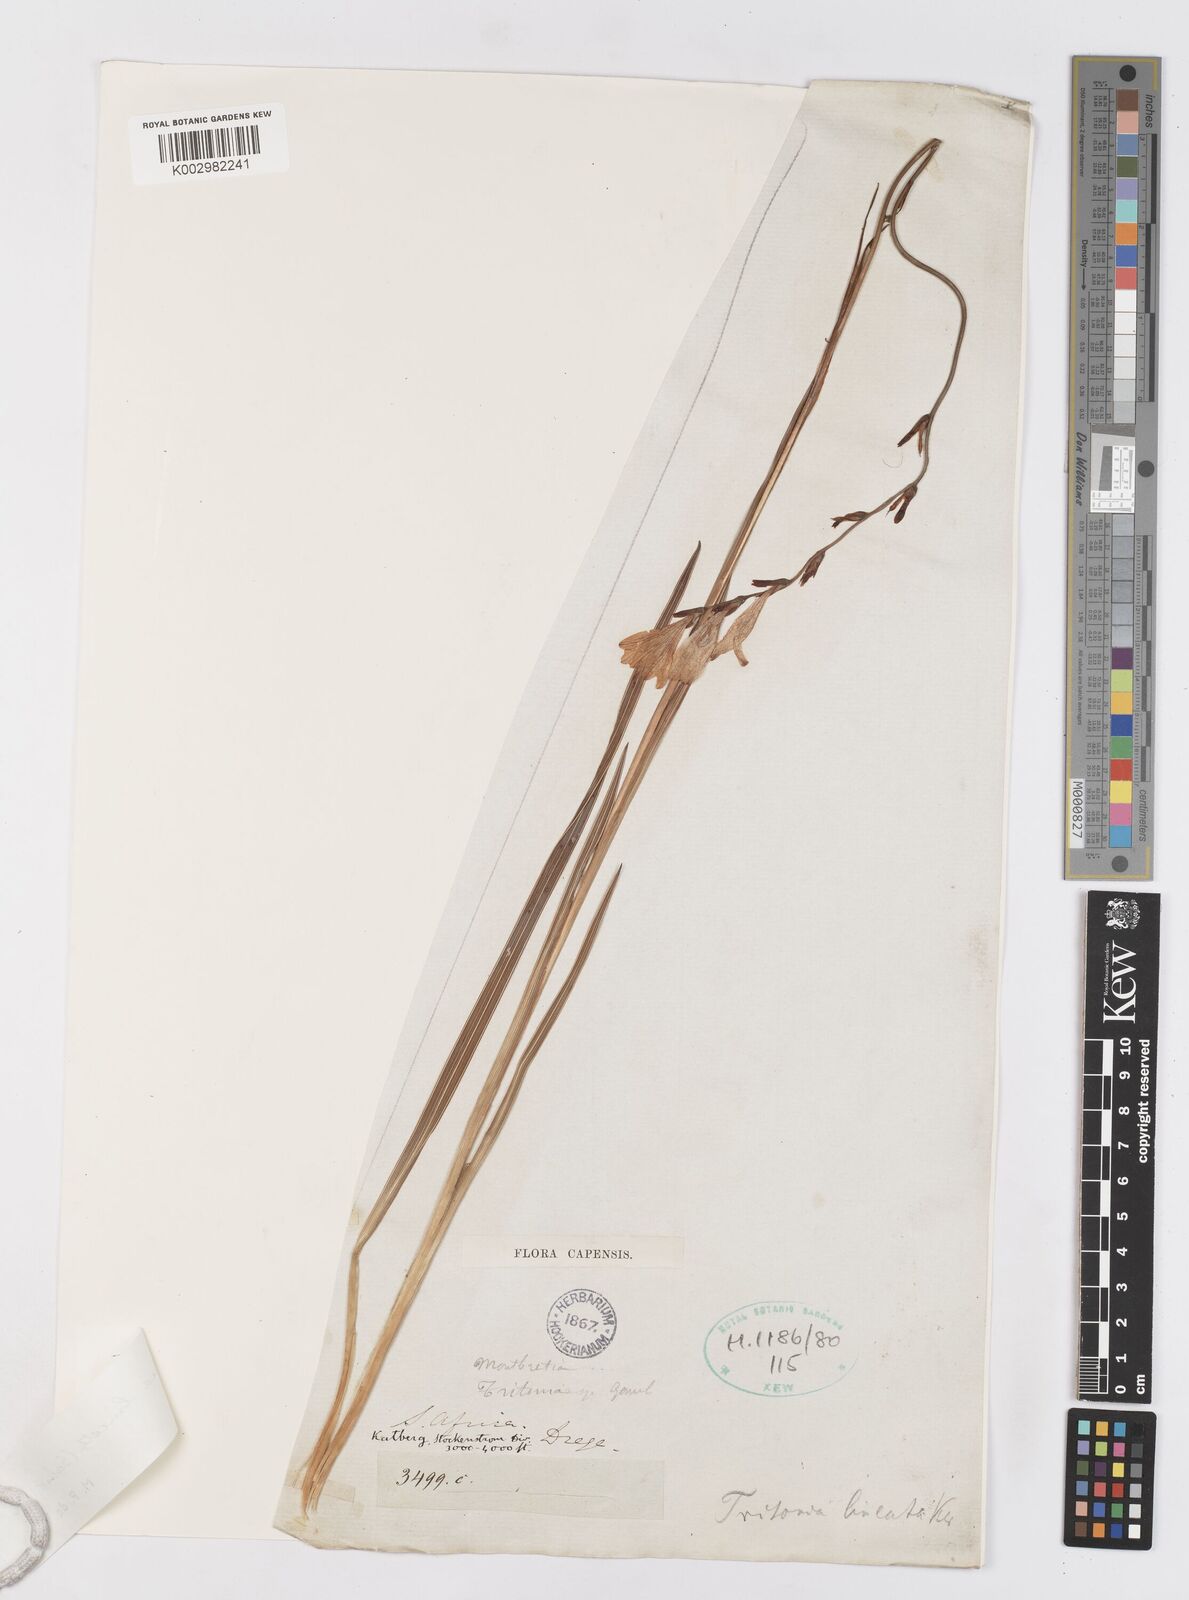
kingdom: Plantae
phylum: Tracheophyta
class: Liliopsida
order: Asparagales
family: Iridaceae
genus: Tritonia
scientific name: Tritonia gladiolaris
